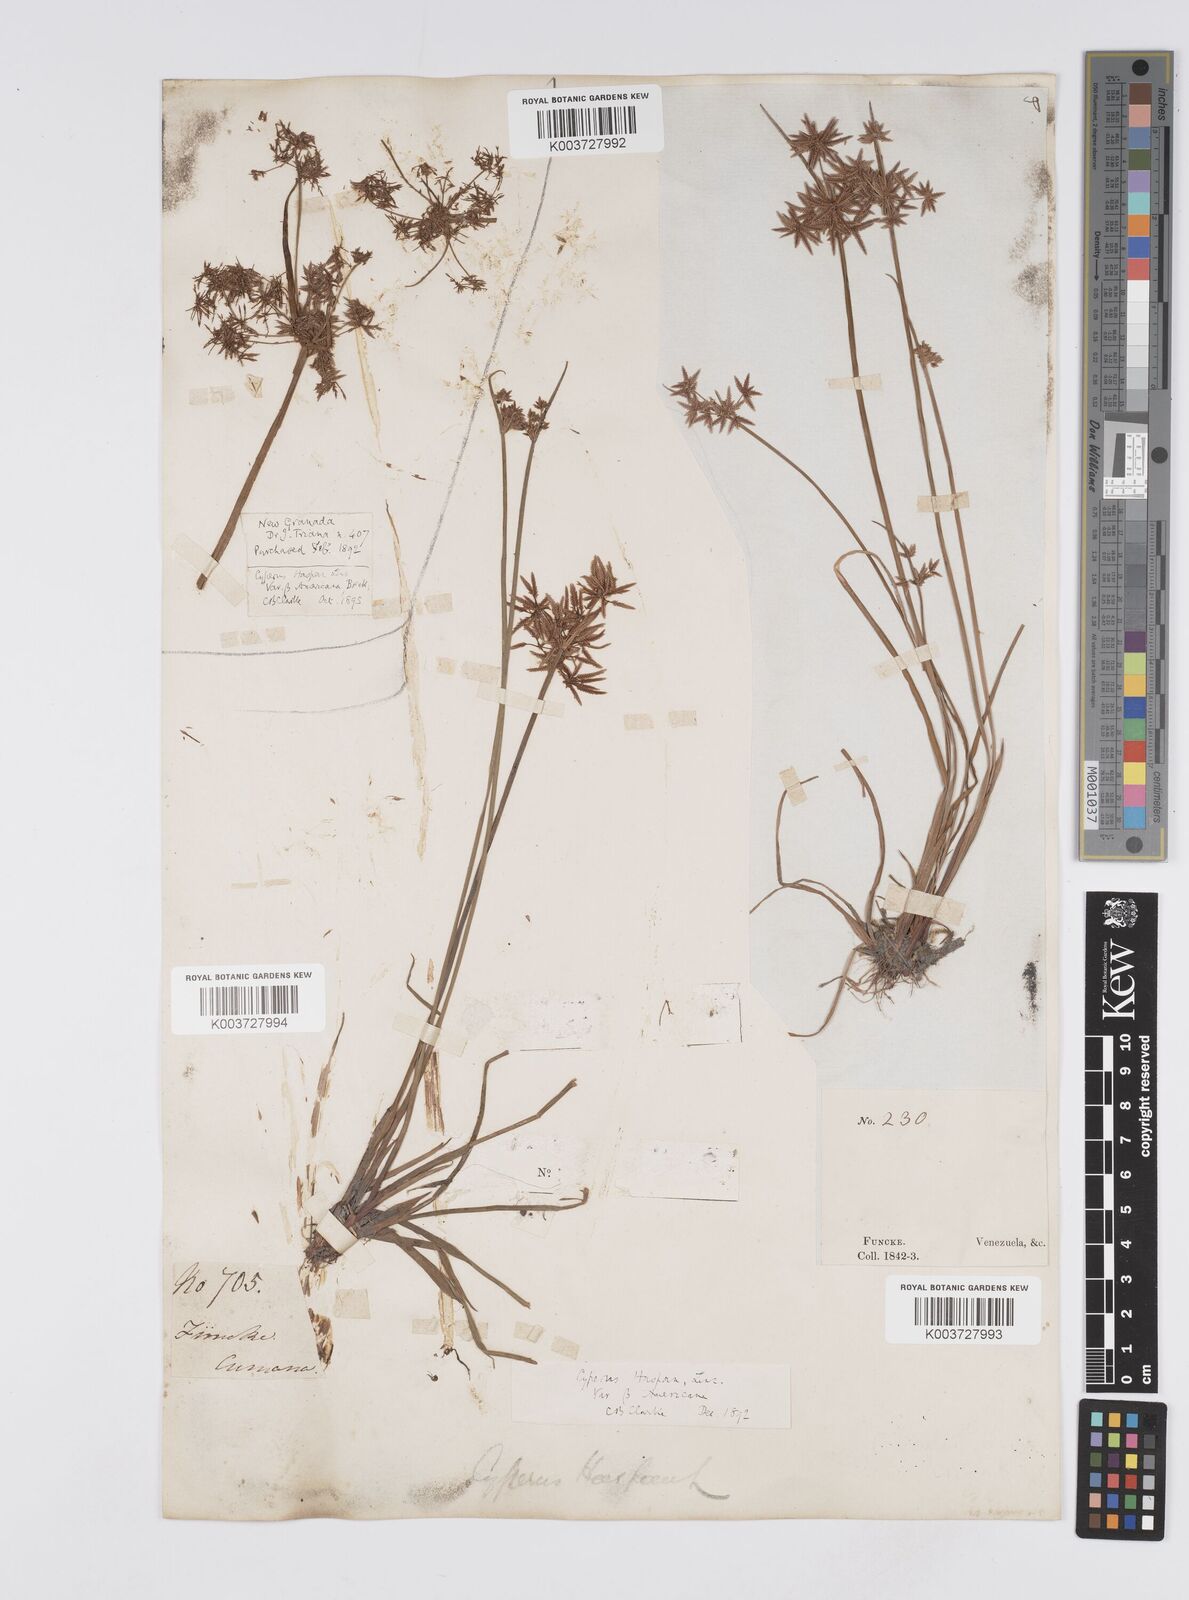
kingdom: Plantae
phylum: Tracheophyta
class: Liliopsida
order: Poales
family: Cyperaceae
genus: Cyperus
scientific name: Cyperus haspan
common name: Haspan flatsedge
